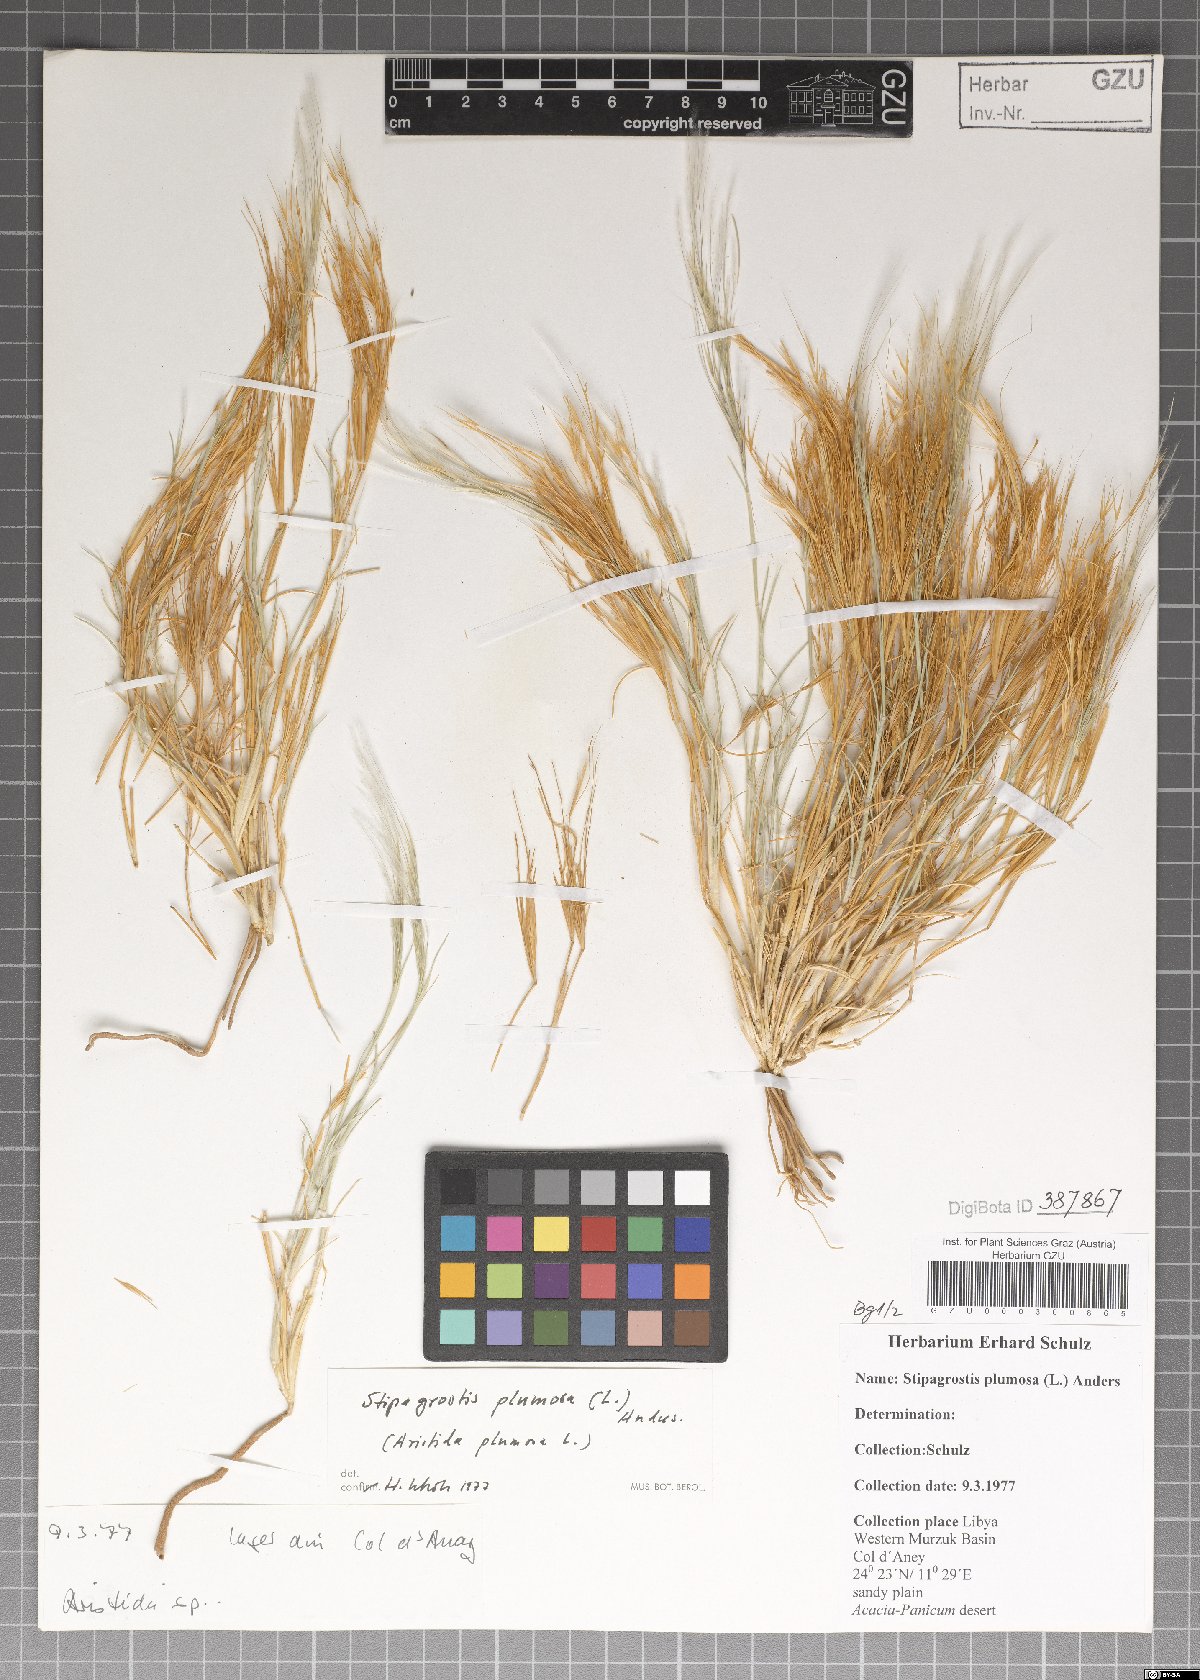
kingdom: Plantae
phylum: Tracheophyta
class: Liliopsida
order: Poales
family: Poaceae
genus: Stipagrostis
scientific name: Stipagrostis plumosa
